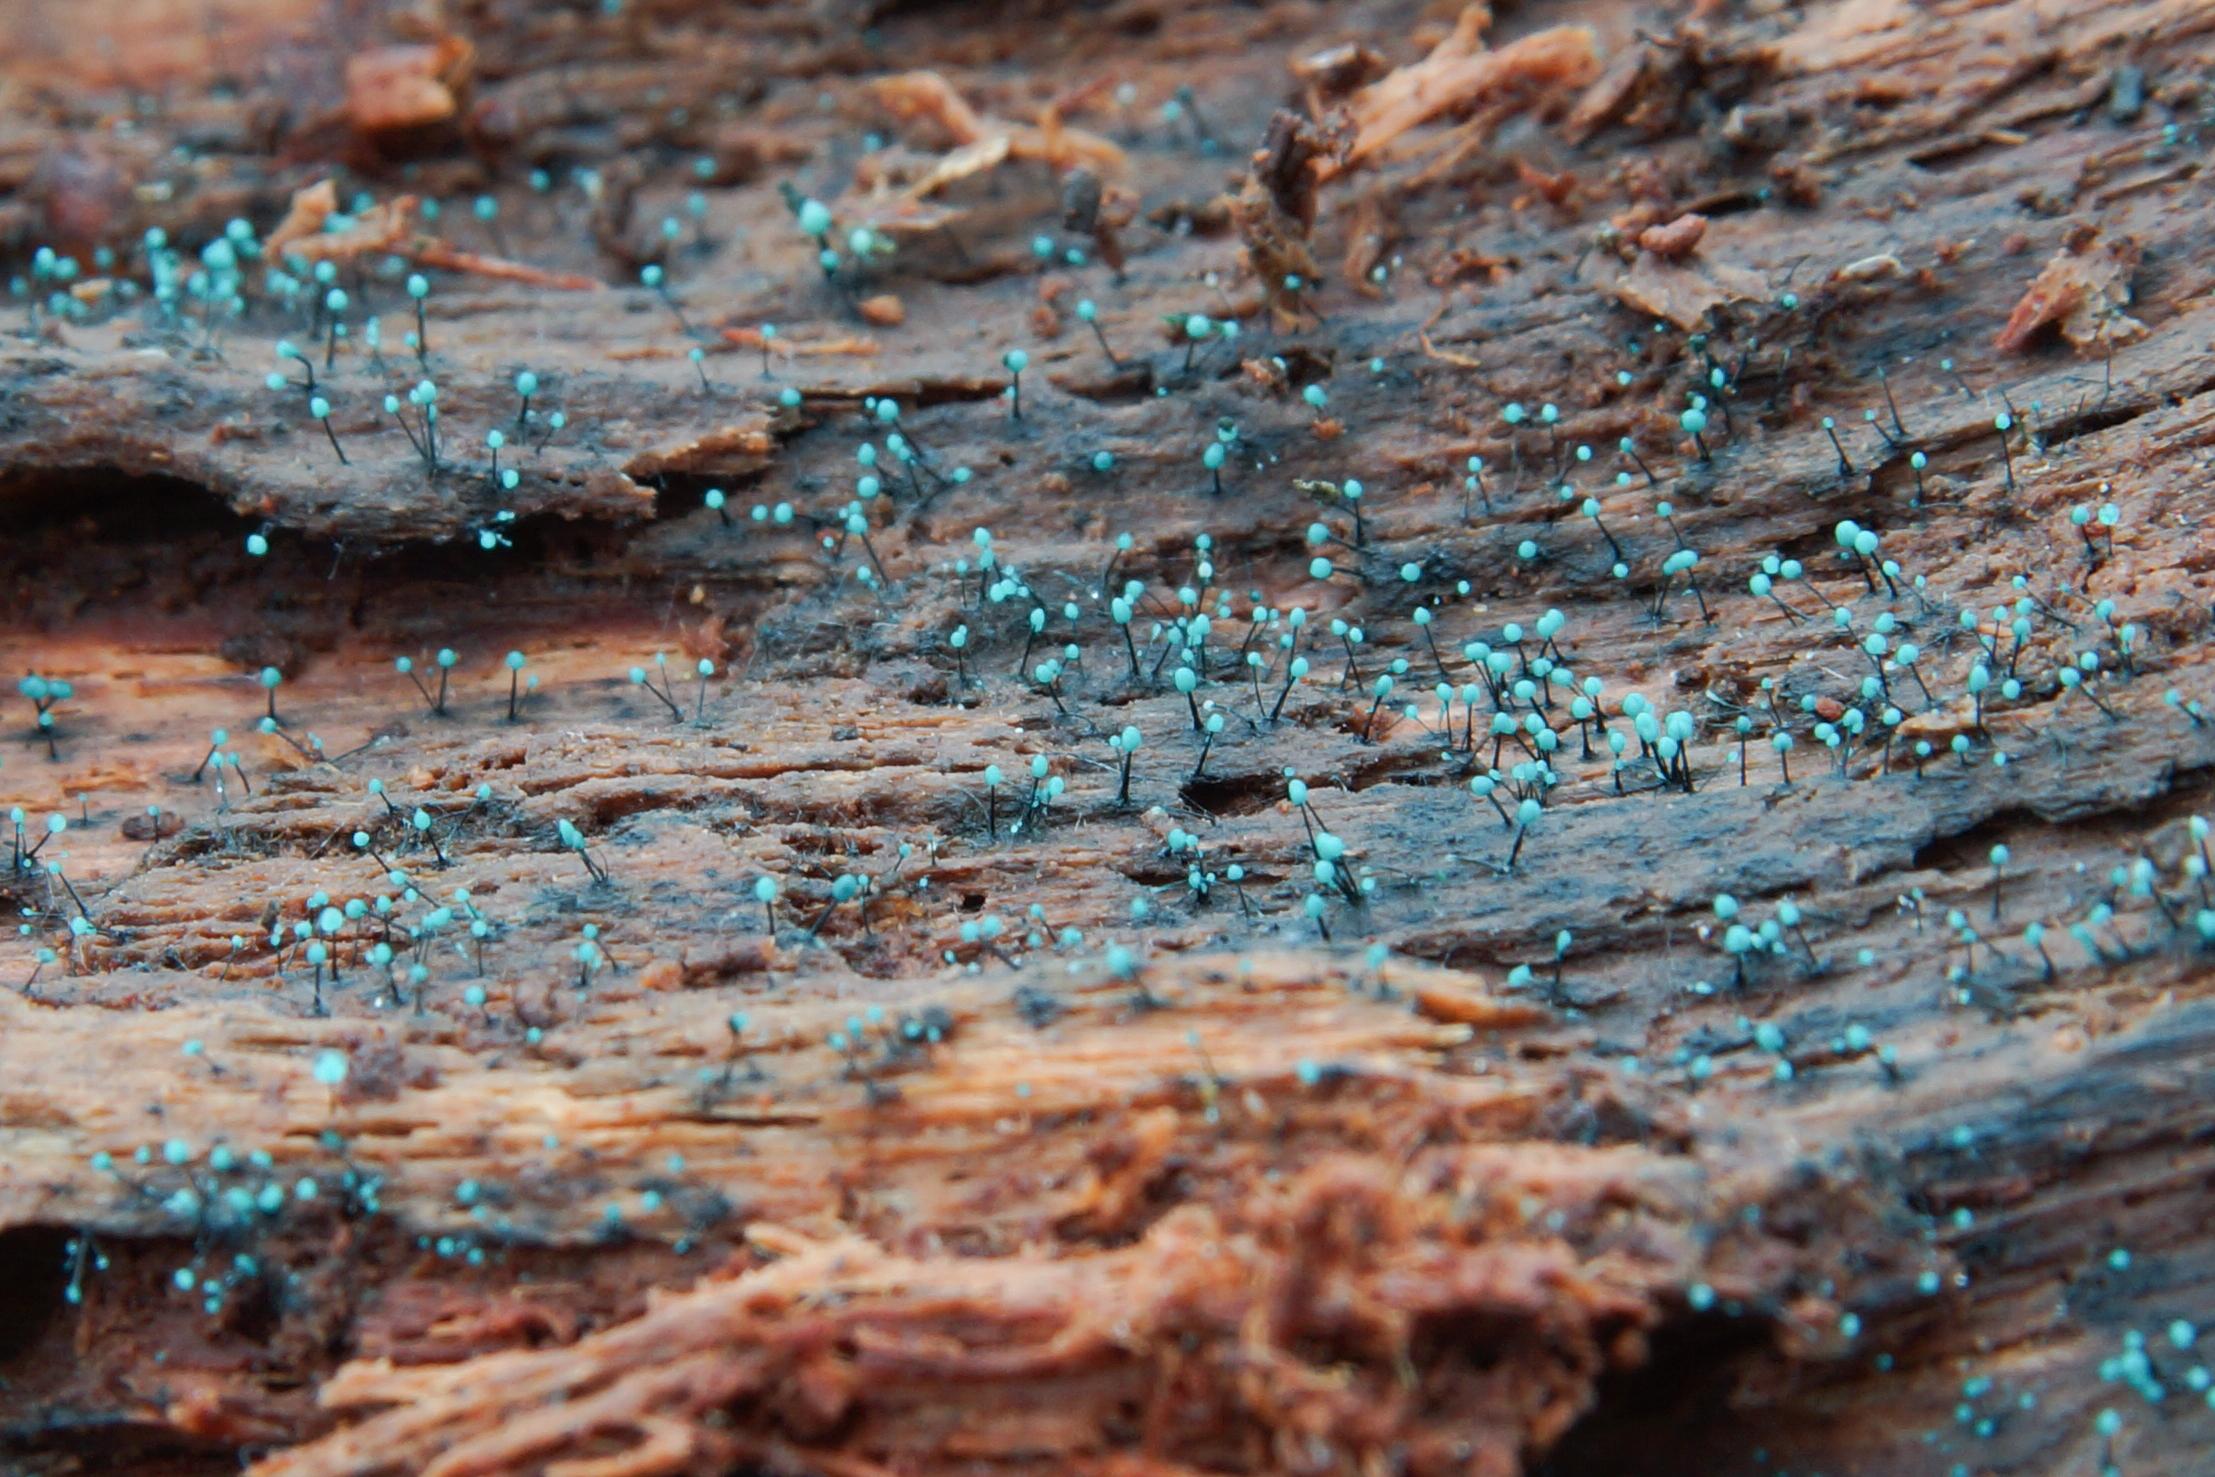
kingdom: Fungi
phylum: Ascomycota
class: Leotiomycetes
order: Leotiales
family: Tympanidaceae
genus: Dendrostilbella
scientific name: Dendrostilbella smaragdina
